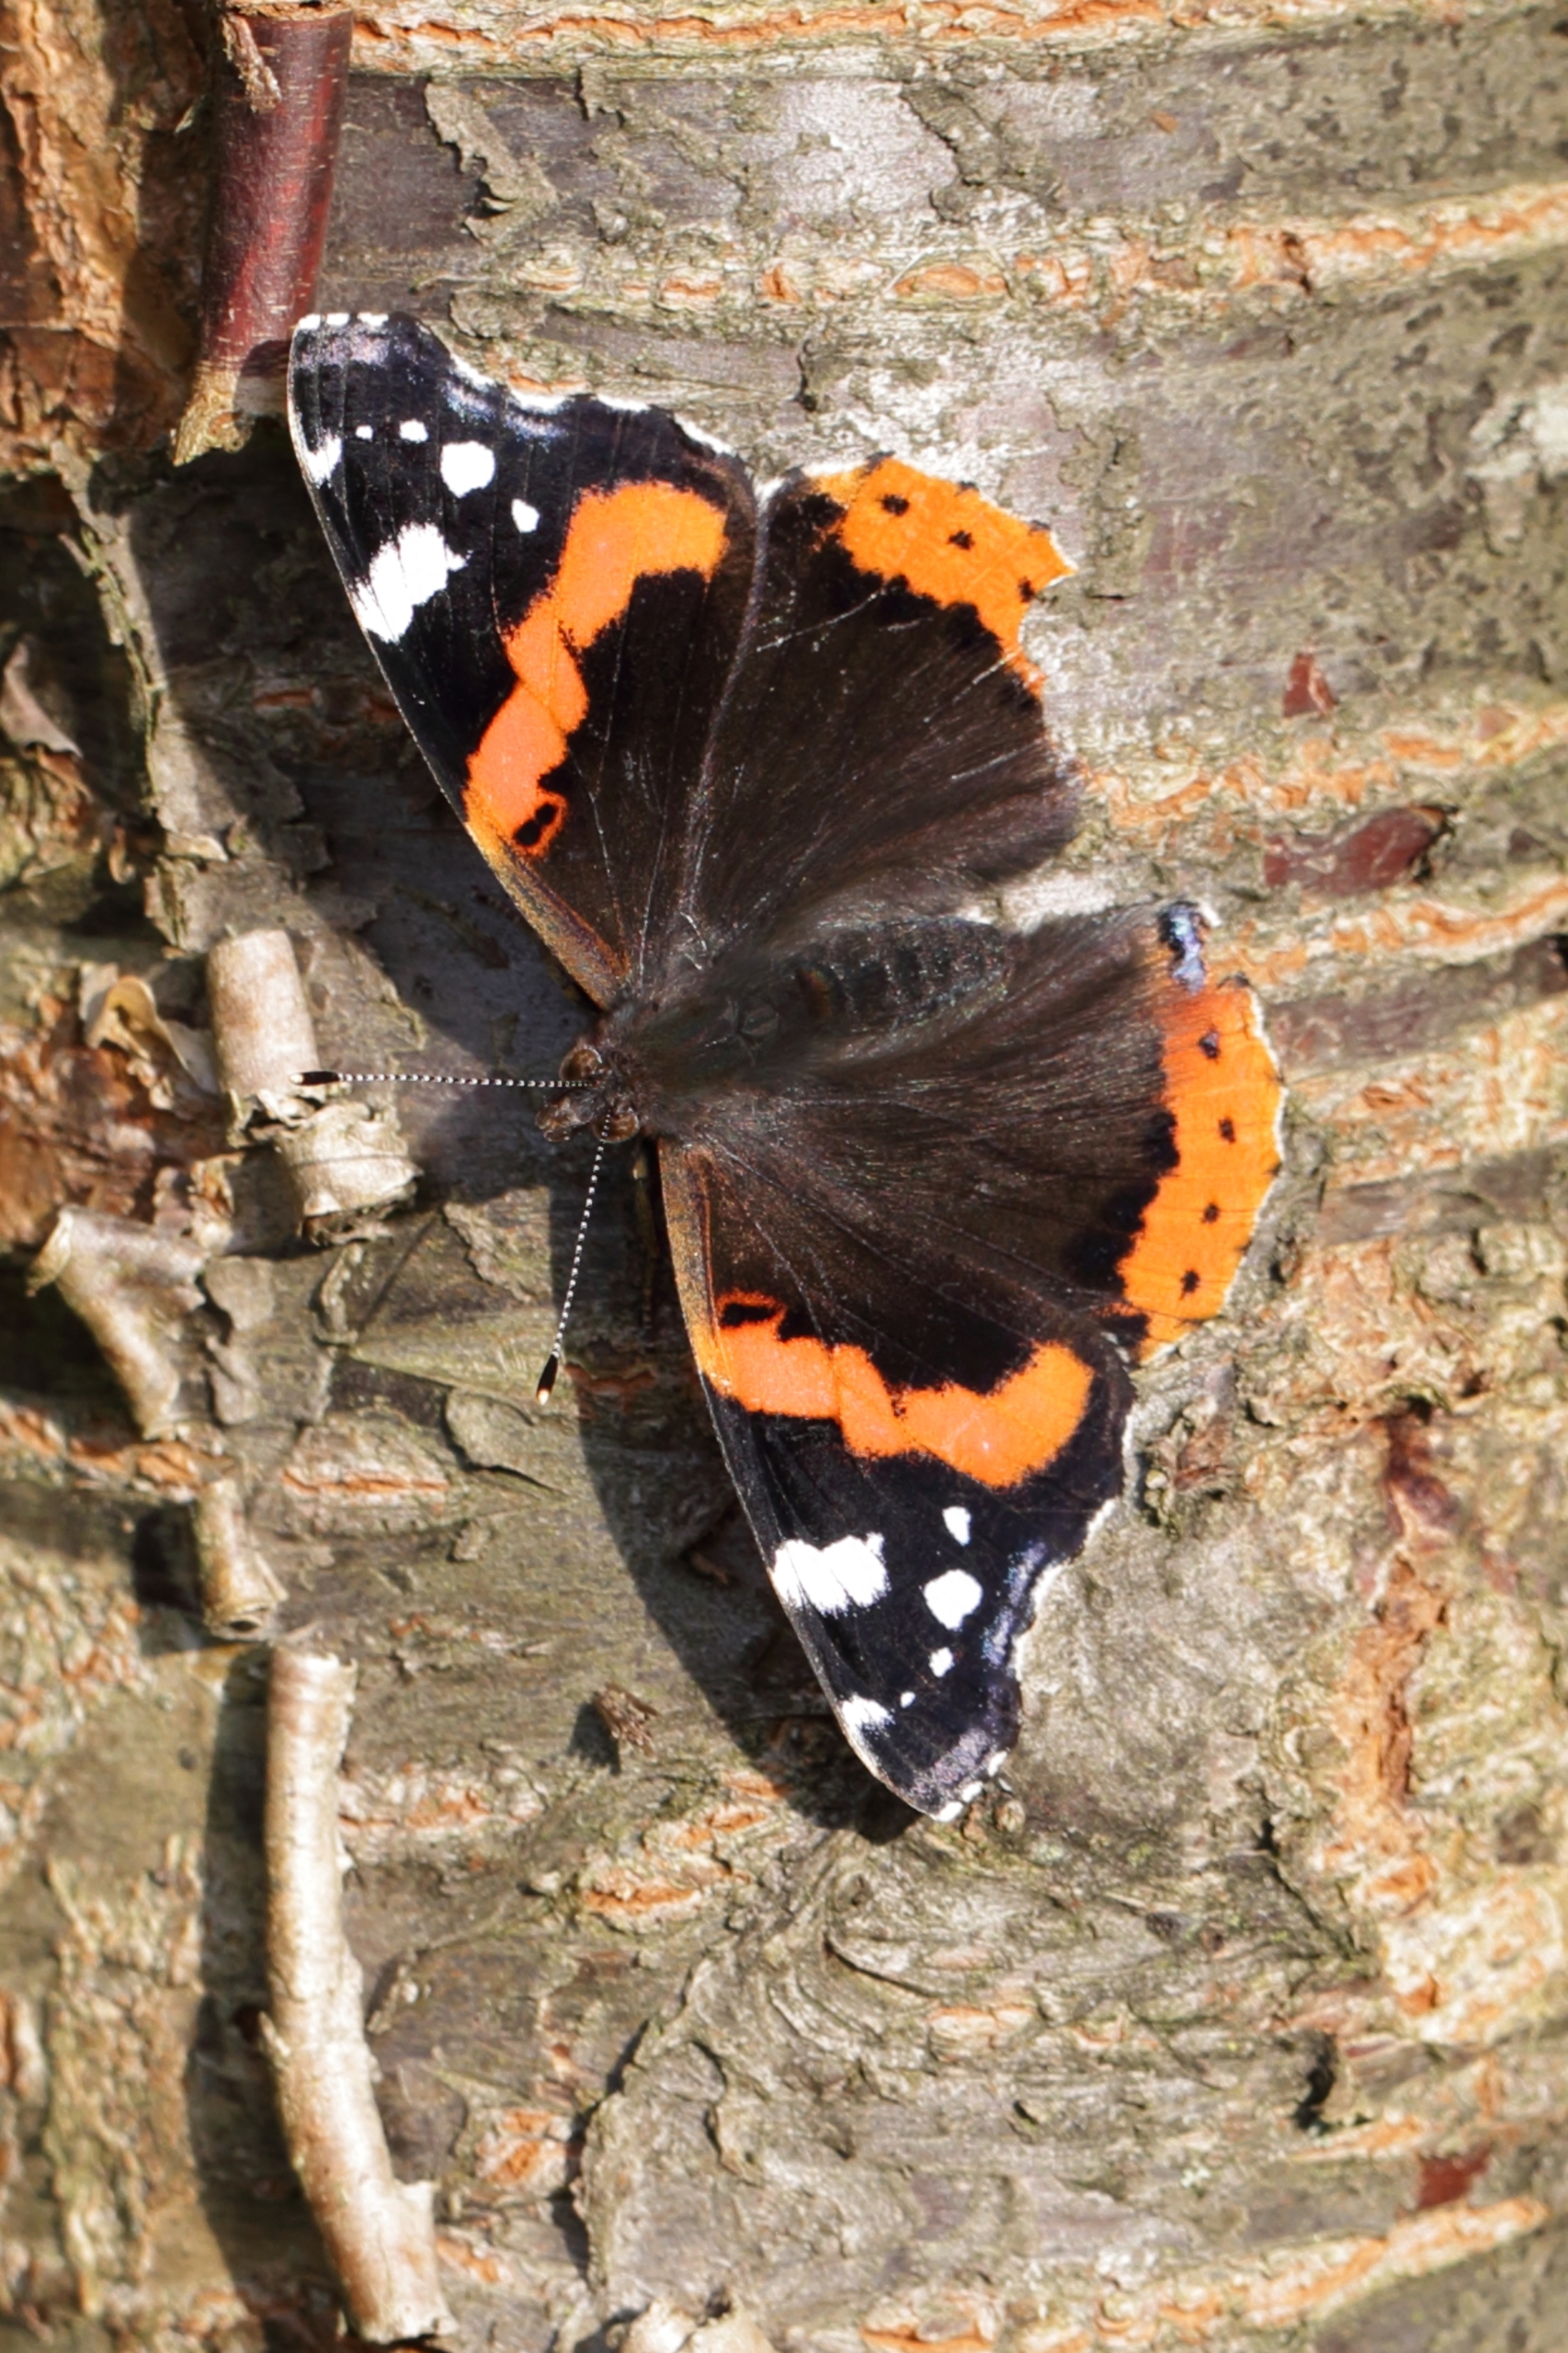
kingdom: Animalia
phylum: Arthropoda
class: Insecta
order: Lepidoptera
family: Nymphalidae
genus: Vanessa
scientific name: Vanessa atalanta
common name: Admiral
